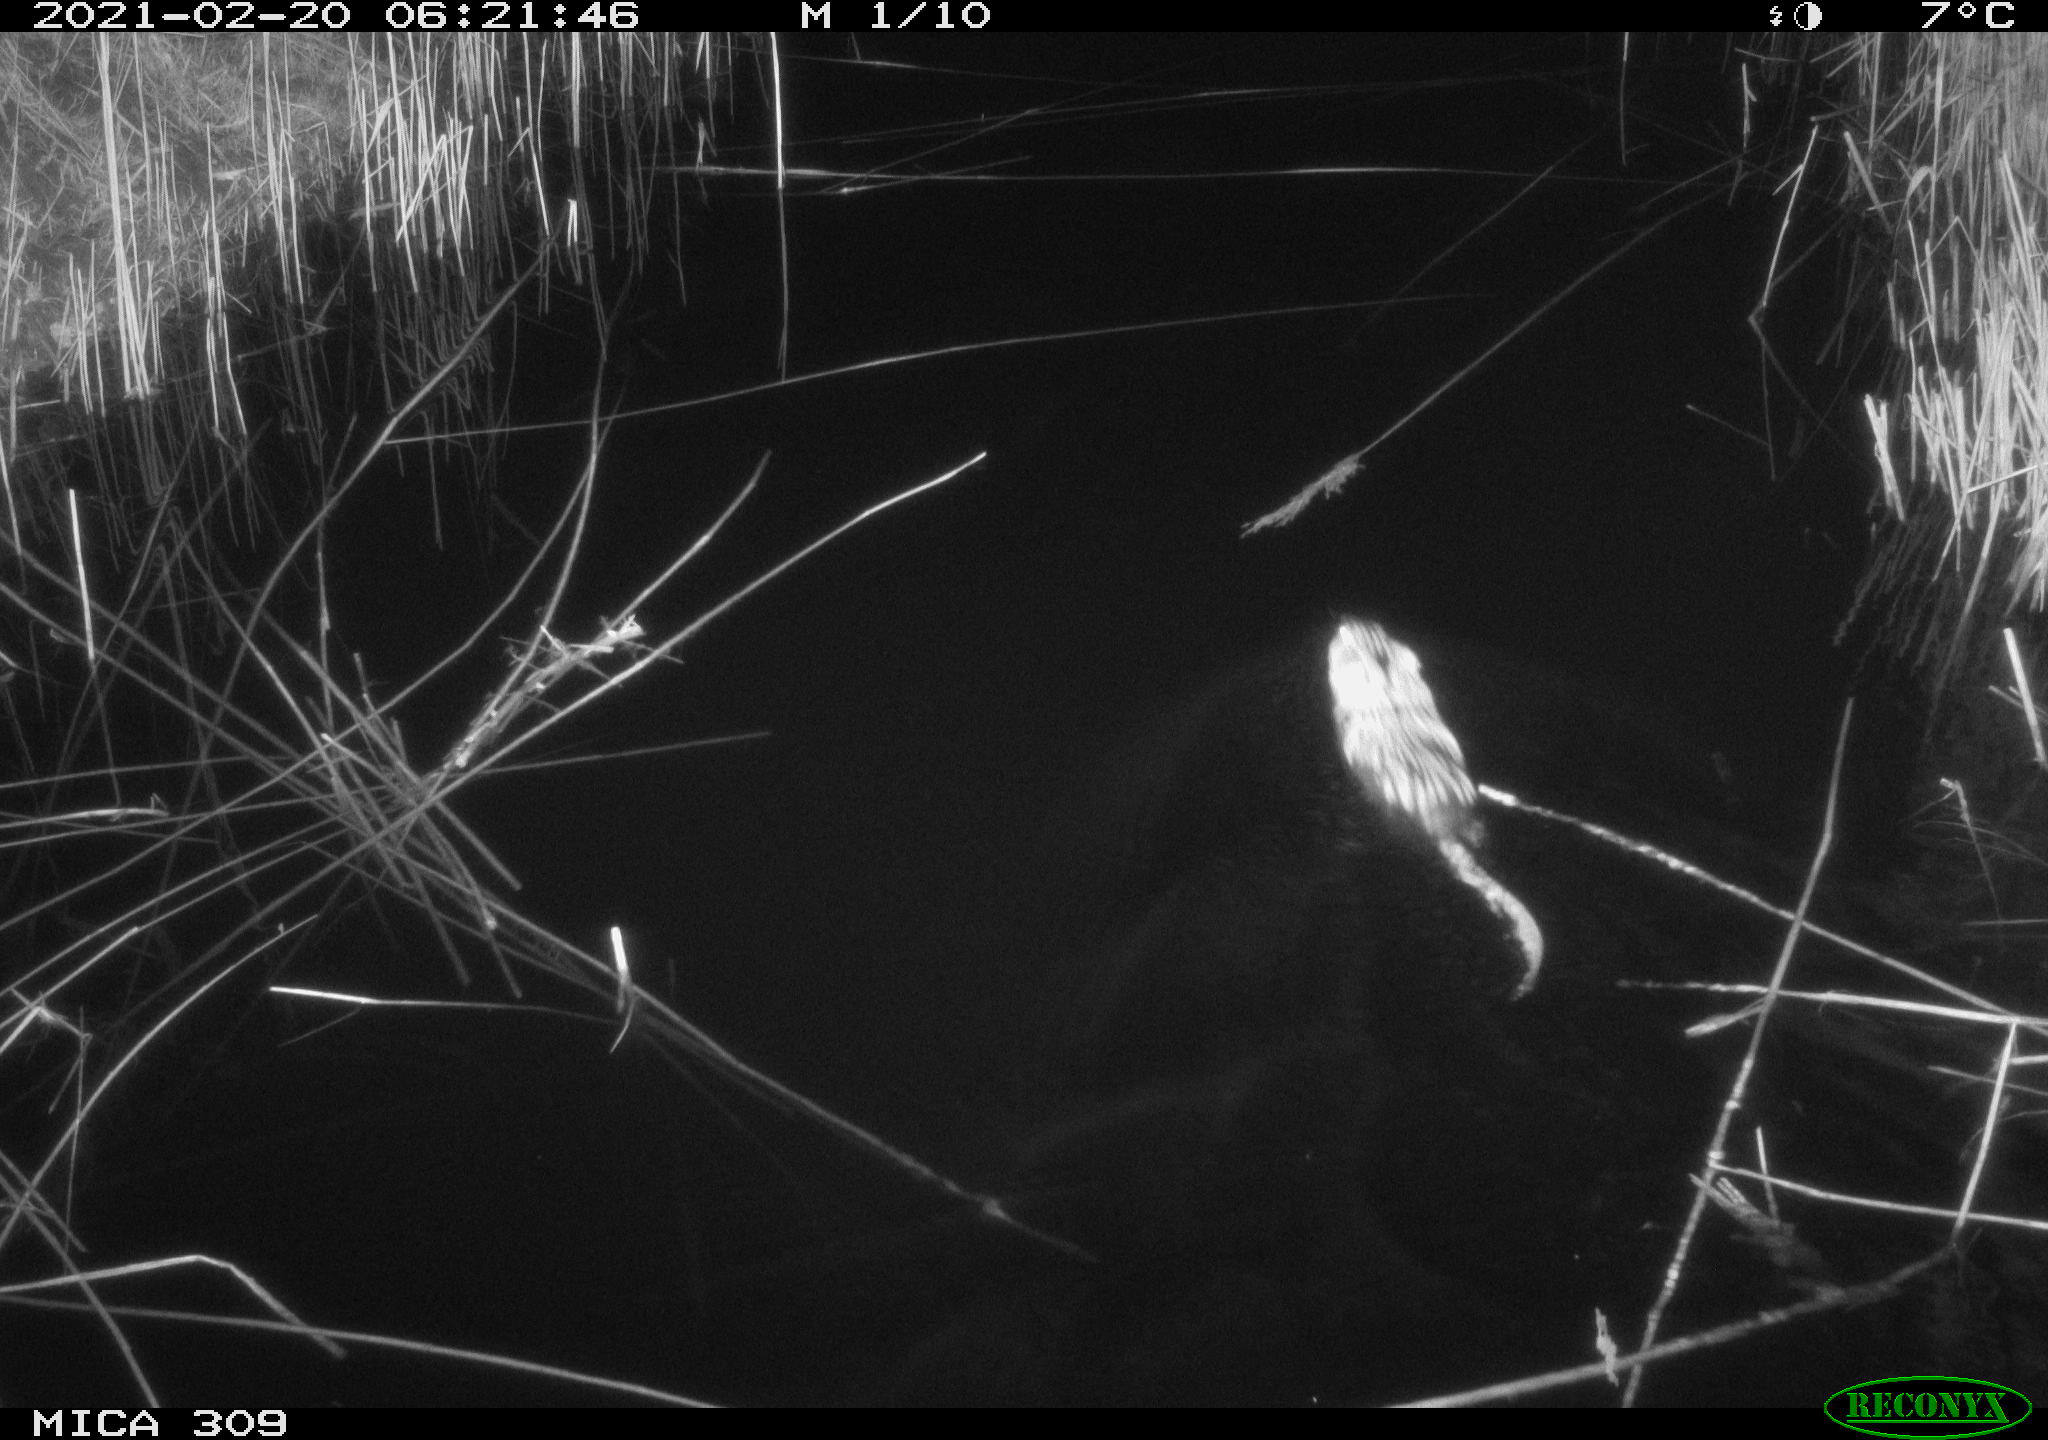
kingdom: Animalia
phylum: Chordata
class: Mammalia
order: Rodentia
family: Cricetidae
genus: Ondatra
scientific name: Ondatra zibethicus
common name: Muskrat
